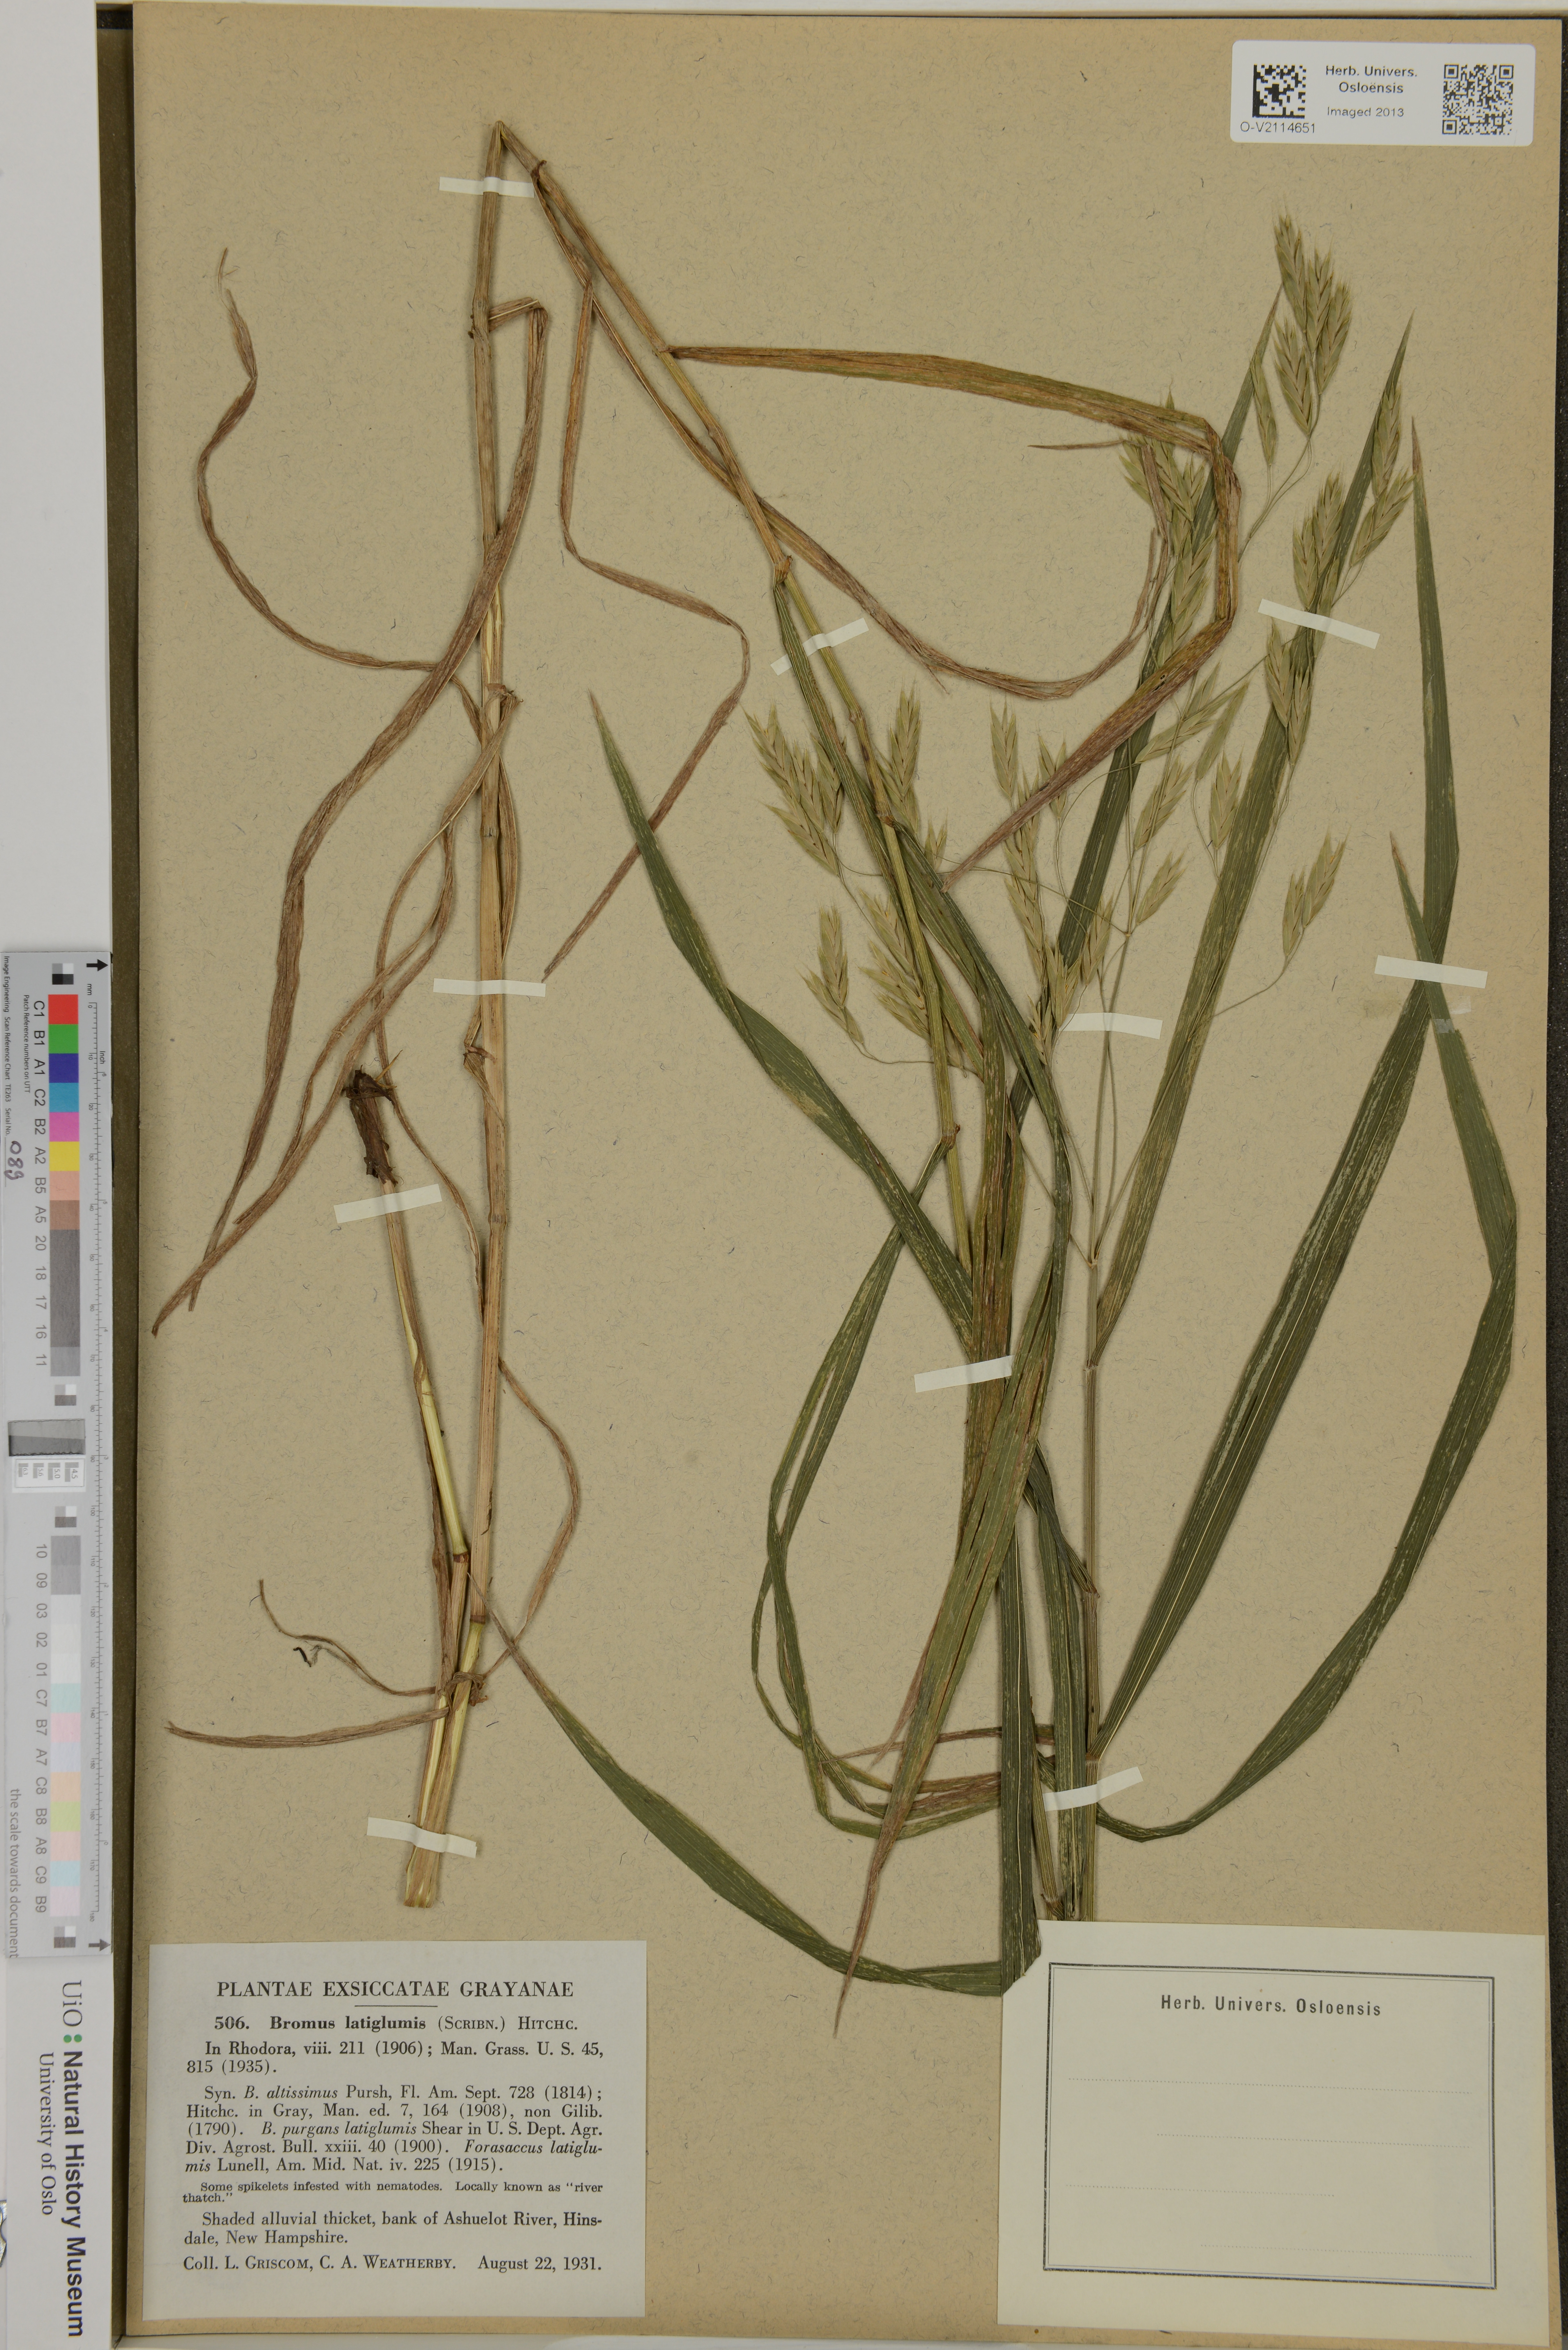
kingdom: Plantae
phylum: Tracheophyta
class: Liliopsida
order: Poales
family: Poaceae
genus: Bromus
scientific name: Bromus latiglumis
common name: Broad-glumed brome
